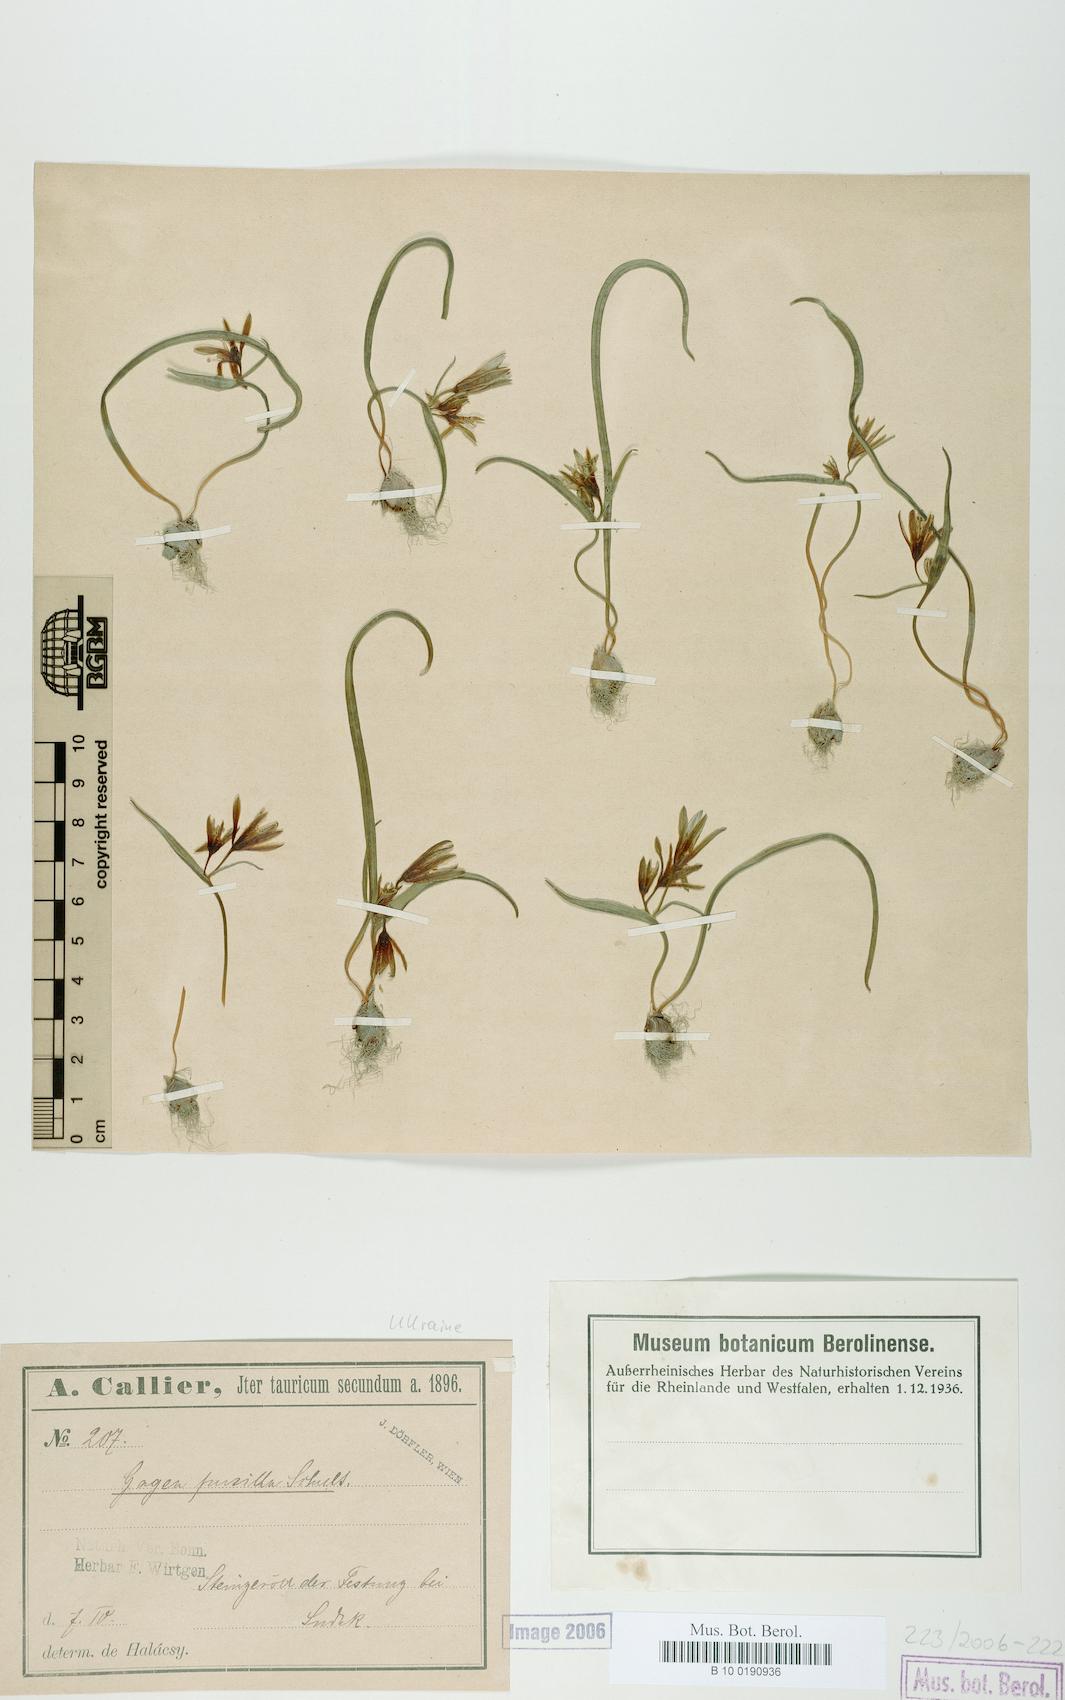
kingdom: Plantae
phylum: Tracheophyta
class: Liliopsida
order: Liliales
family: Liliaceae
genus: Gagea
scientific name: Gagea pusilla
